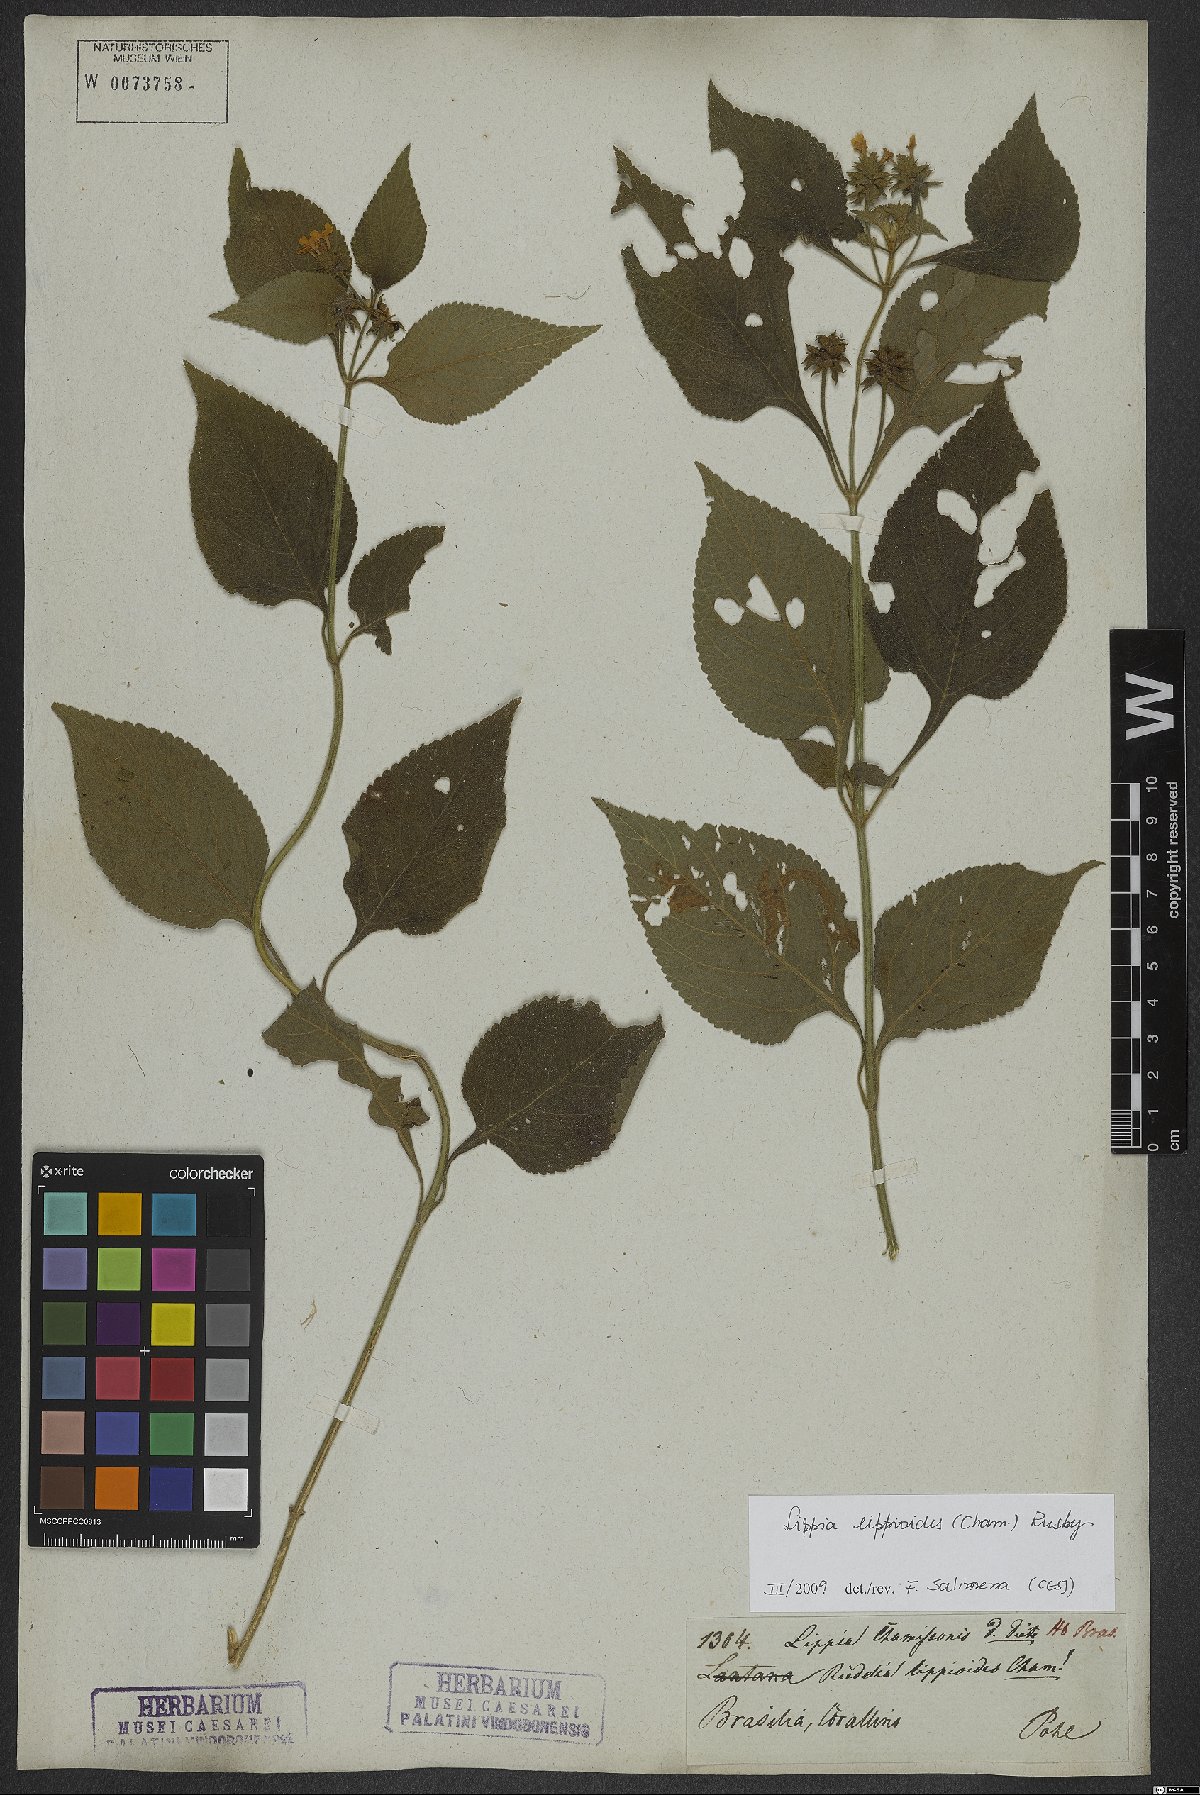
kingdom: Plantae
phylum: Tracheophyta
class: Magnoliopsida
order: Lamiales
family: Verbenaceae
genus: Lippia
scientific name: Lippia lippioides
